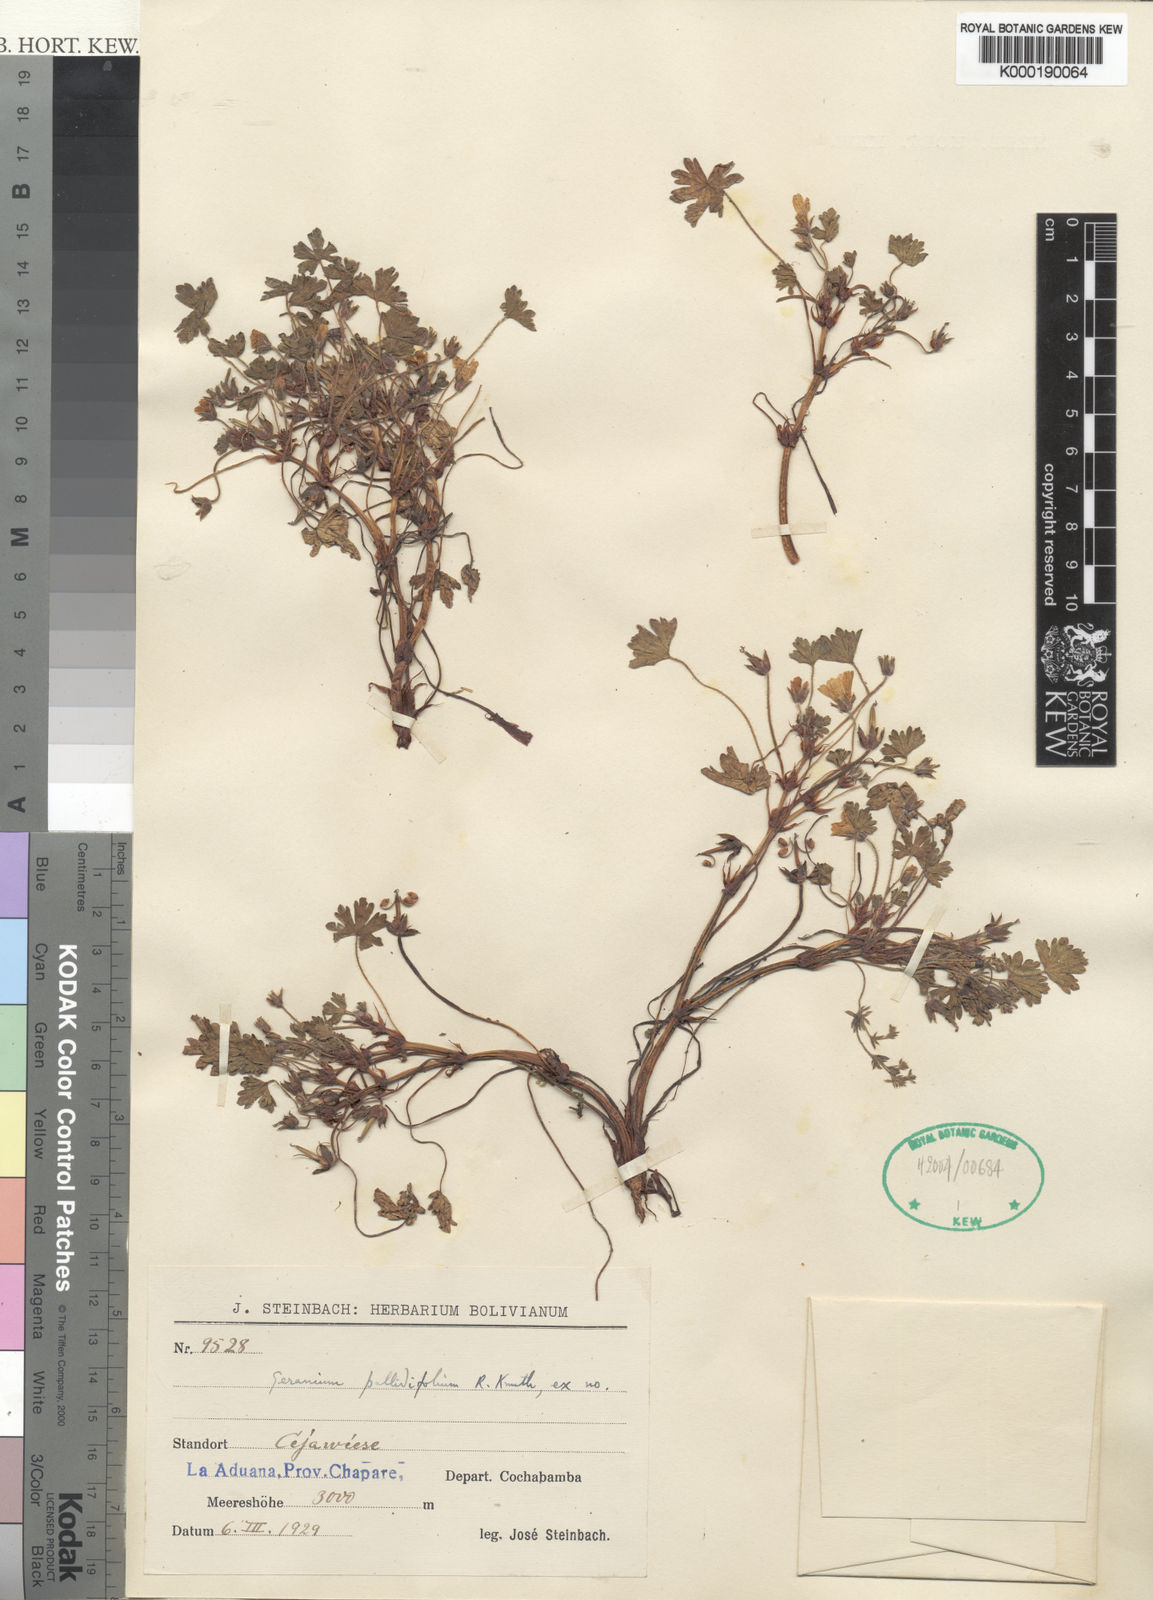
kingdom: Plantae
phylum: Tracheophyta
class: Magnoliopsida
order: Geraniales
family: Geraniaceae
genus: Geranium
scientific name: Geranium sessiliflorum
